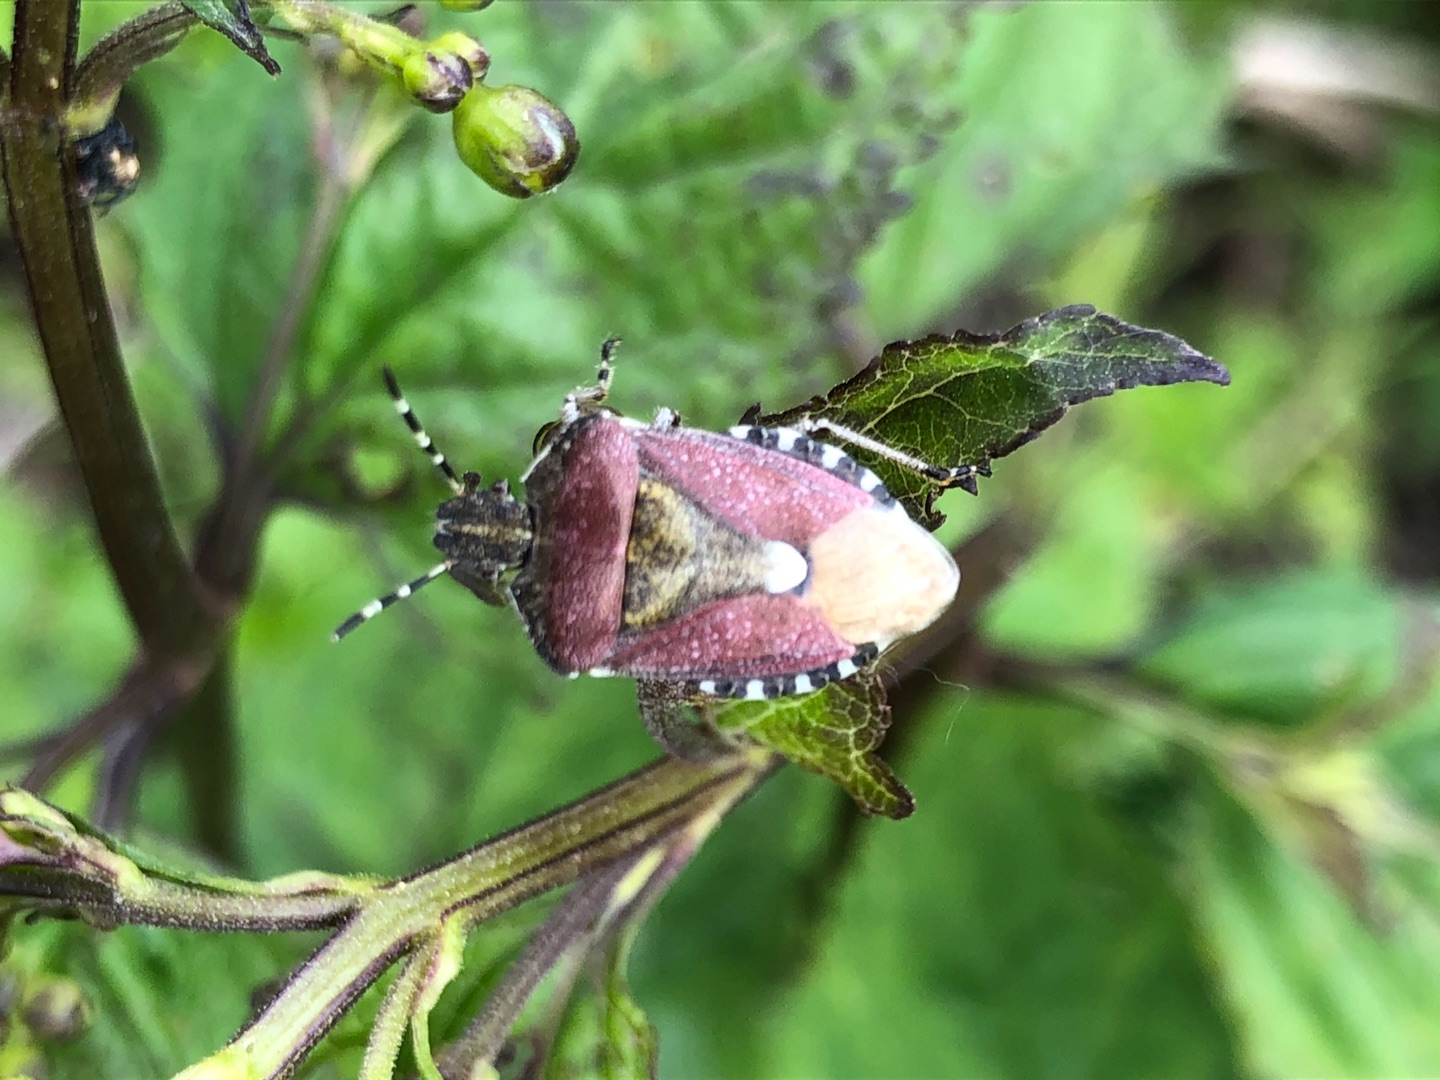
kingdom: Animalia
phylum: Arthropoda
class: Insecta
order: Hemiptera
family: Pentatomidae
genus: Dolycoris
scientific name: Dolycoris baccarum
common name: Almindelig bærtæge
